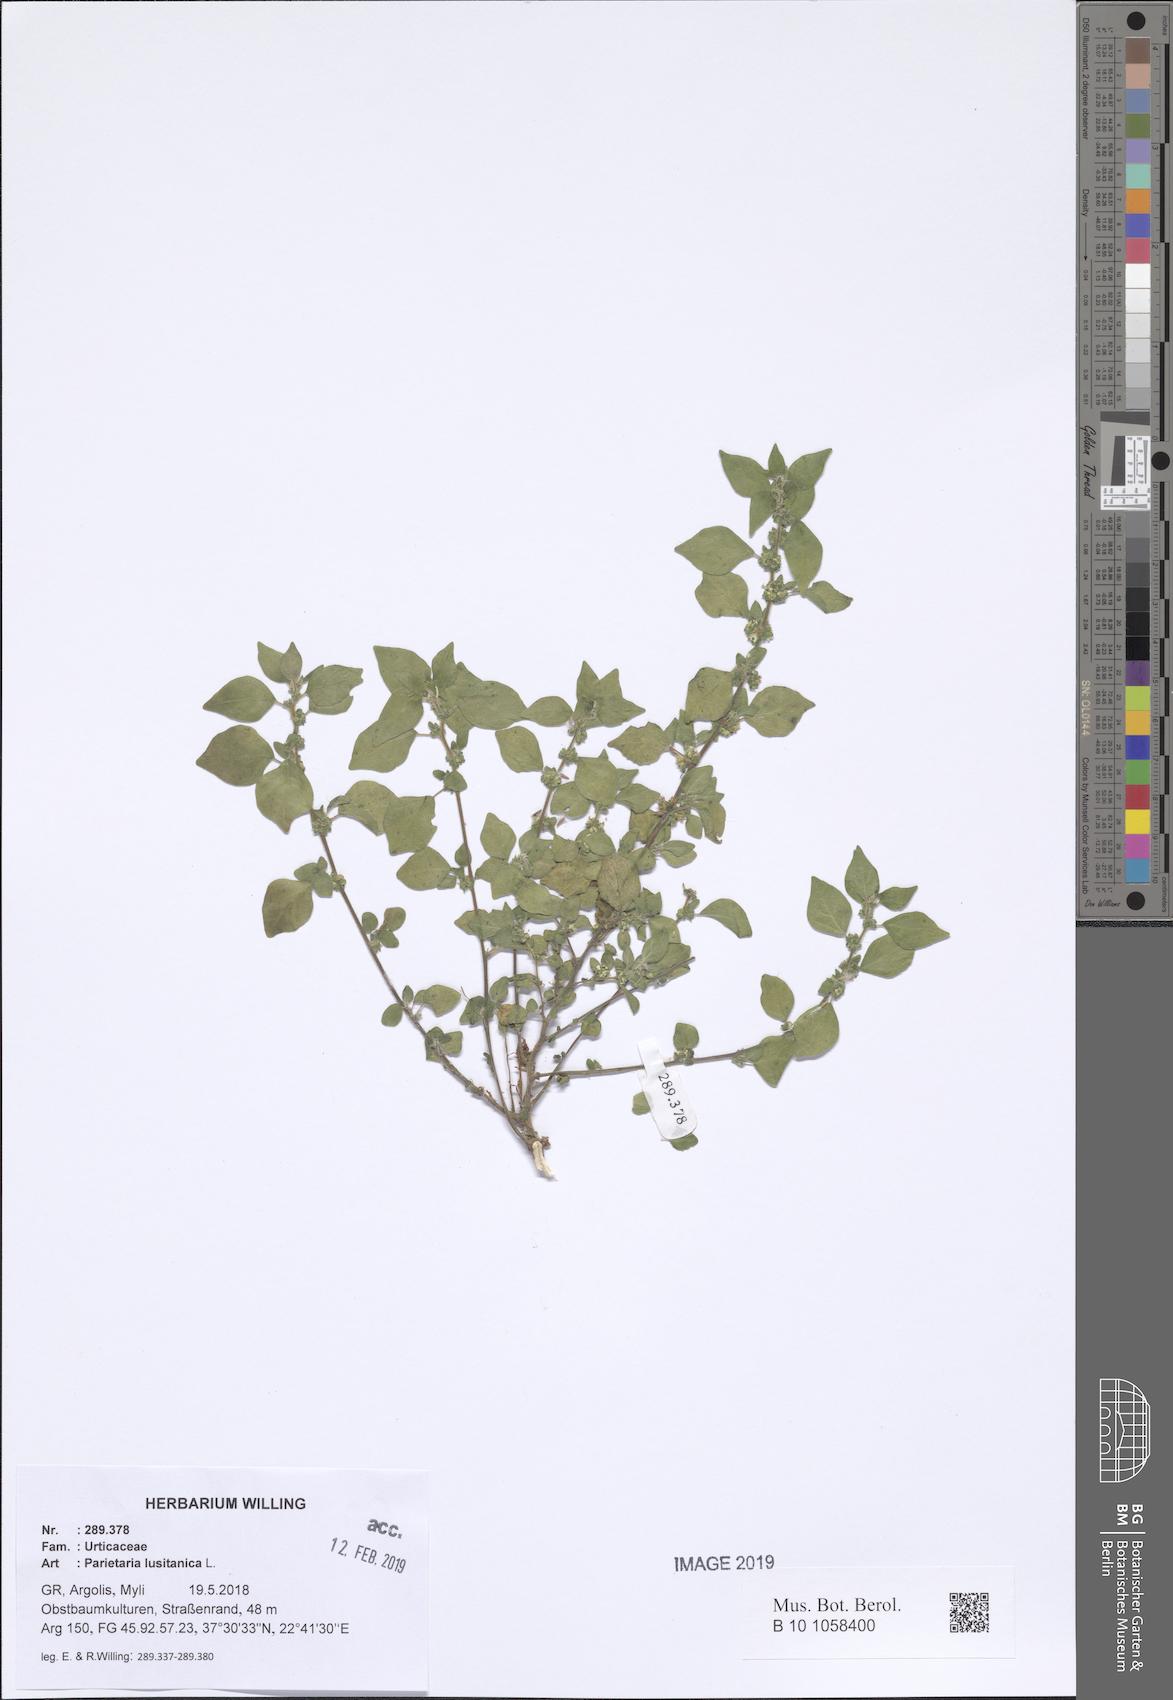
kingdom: Plantae
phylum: Tracheophyta
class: Magnoliopsida
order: Rosales
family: Urticaceae
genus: Parietaria
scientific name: Parietaria lusitanica
